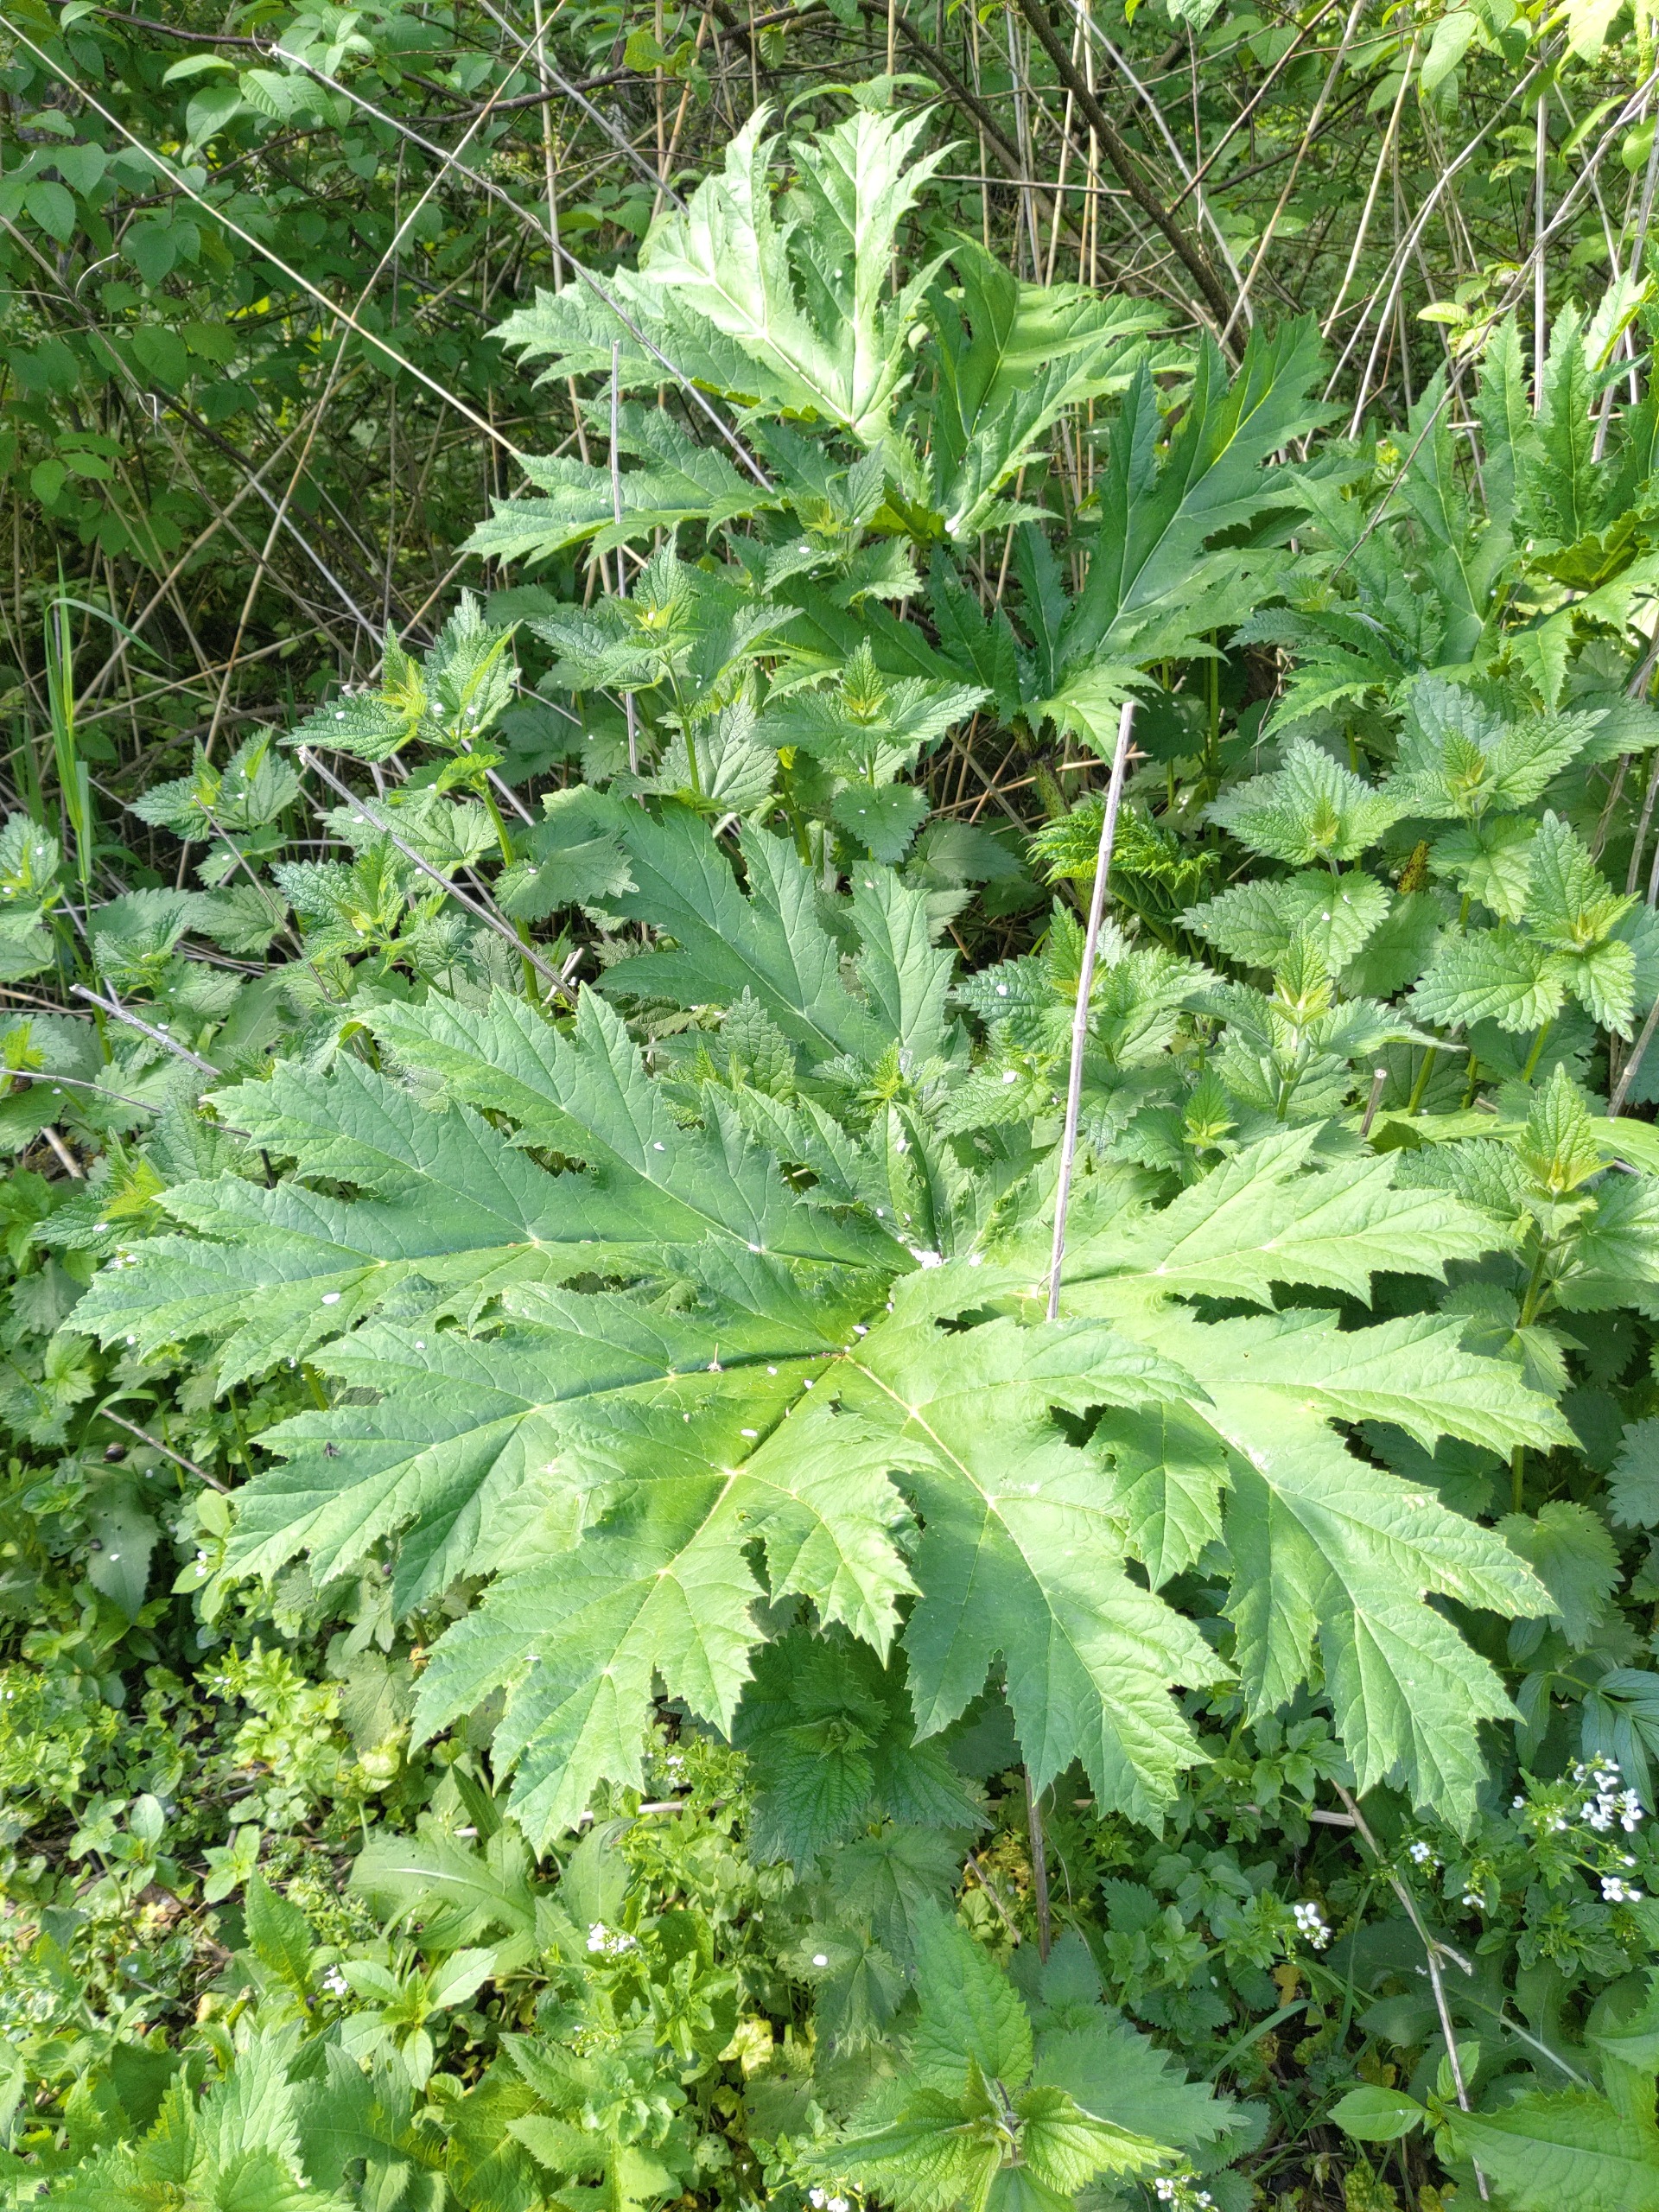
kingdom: Plantae
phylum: Tracheophyta
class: Magnoliopsida
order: Apiales
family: Apiaceae
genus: Heracleum
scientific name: Heracleum mantegazzianum
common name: Kæmpe-bjørneklo
